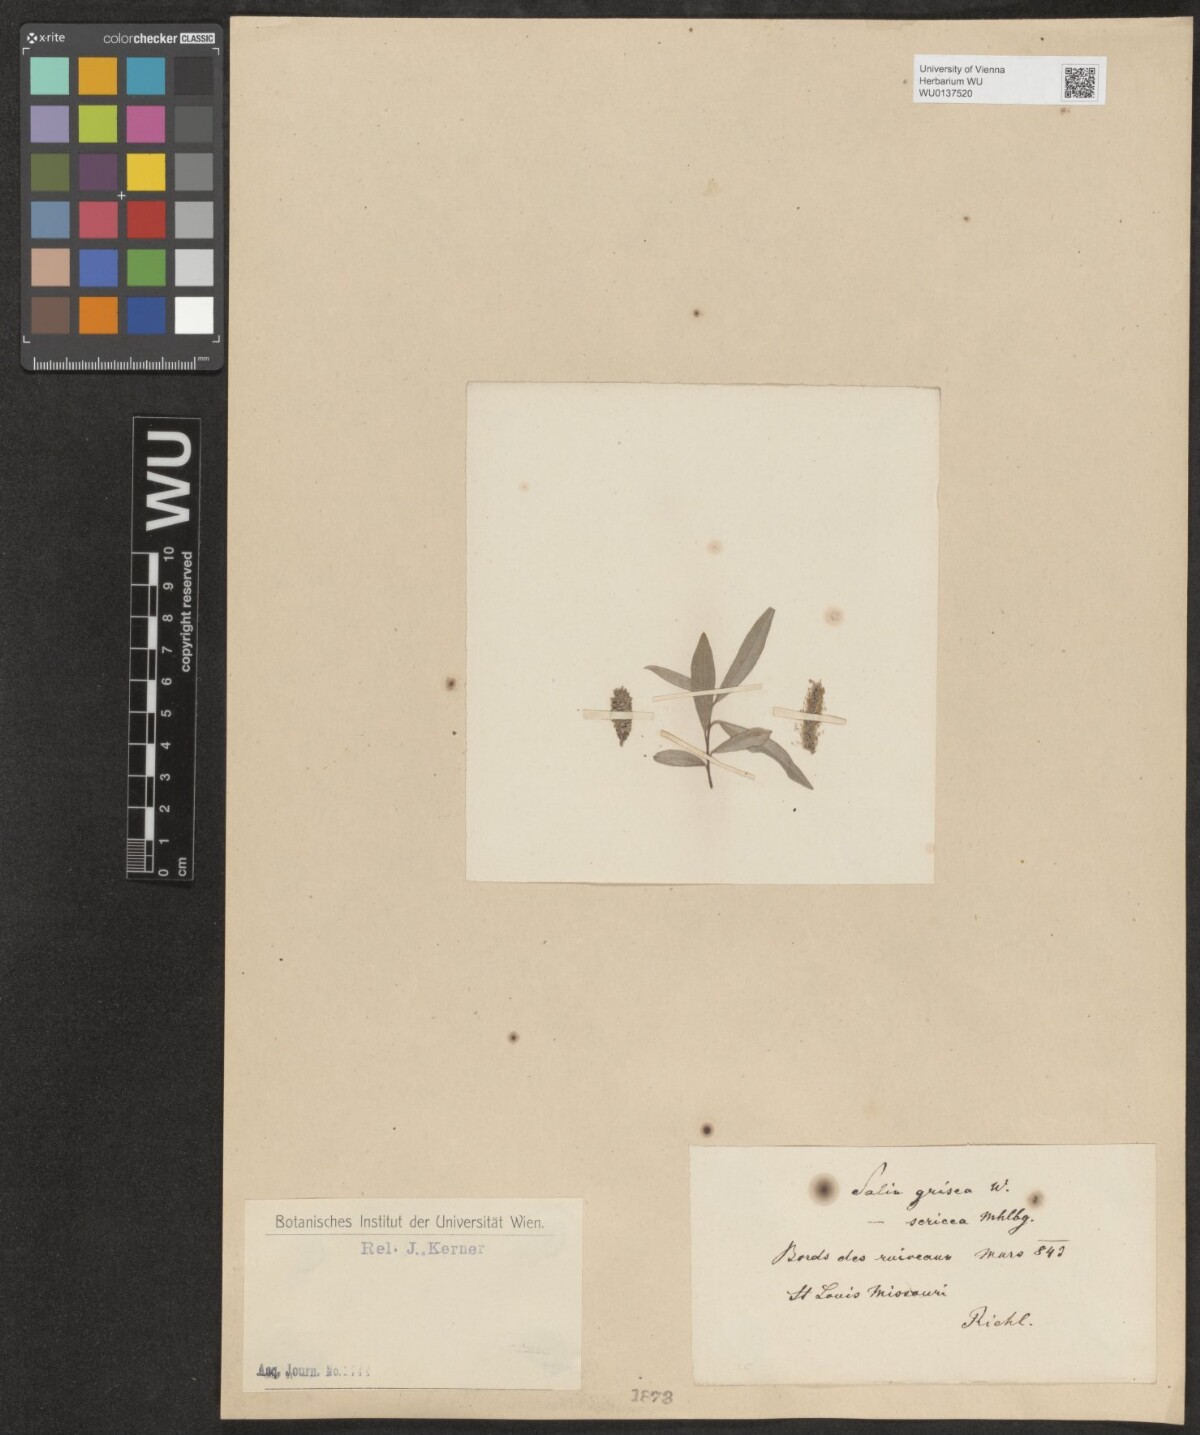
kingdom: Plantae
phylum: Tracheophyta
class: Magnoliopsida
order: Malpighiales
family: Salicaceae
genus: Salix
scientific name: Salix sericea
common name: Silky willow
